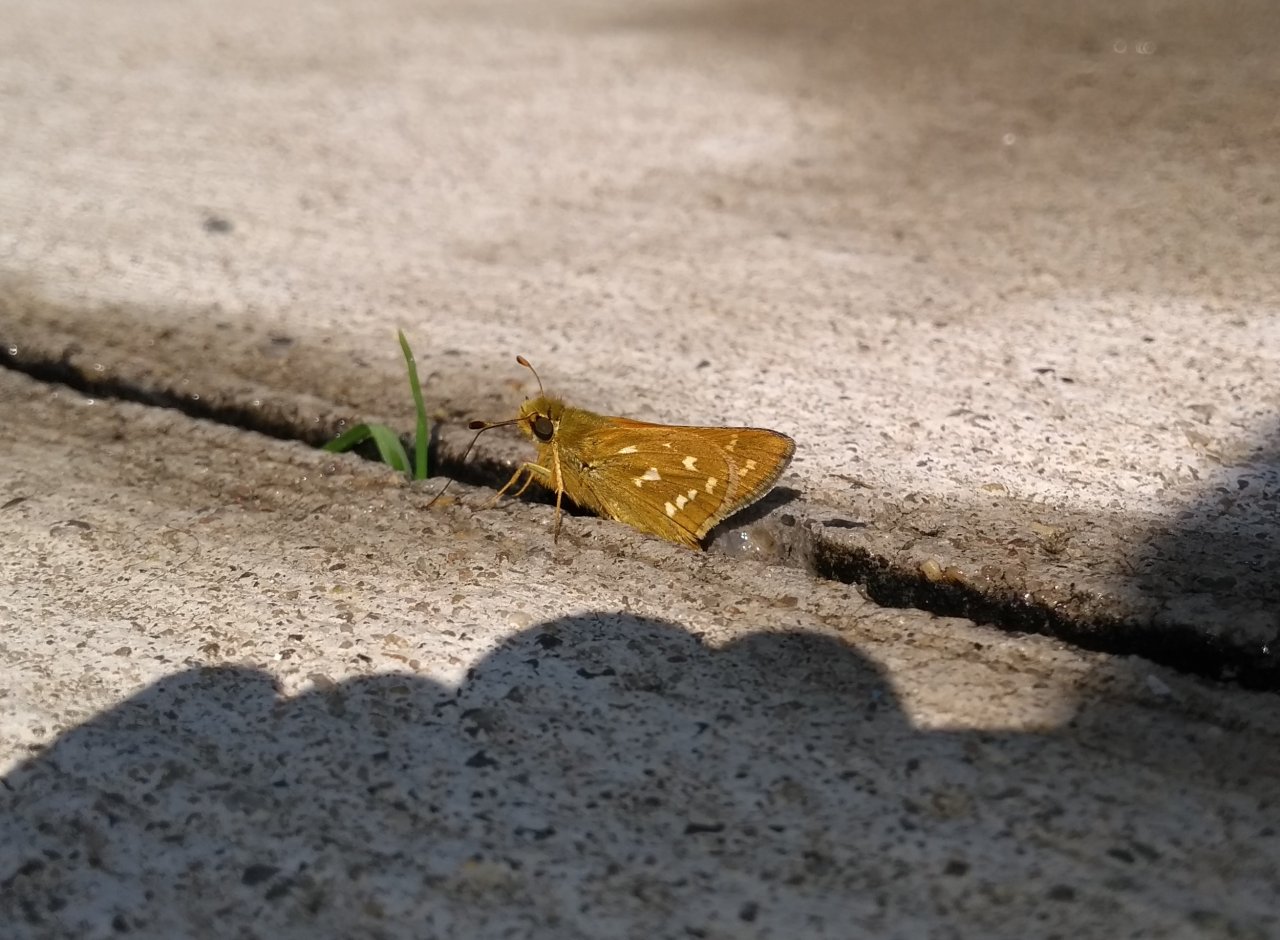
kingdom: Animalia
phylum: Arthropoda
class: Insecta
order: Lepidoptera
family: Hesperiidae
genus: Hesperia
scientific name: Hesperia comma
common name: Common Branded Skipper
